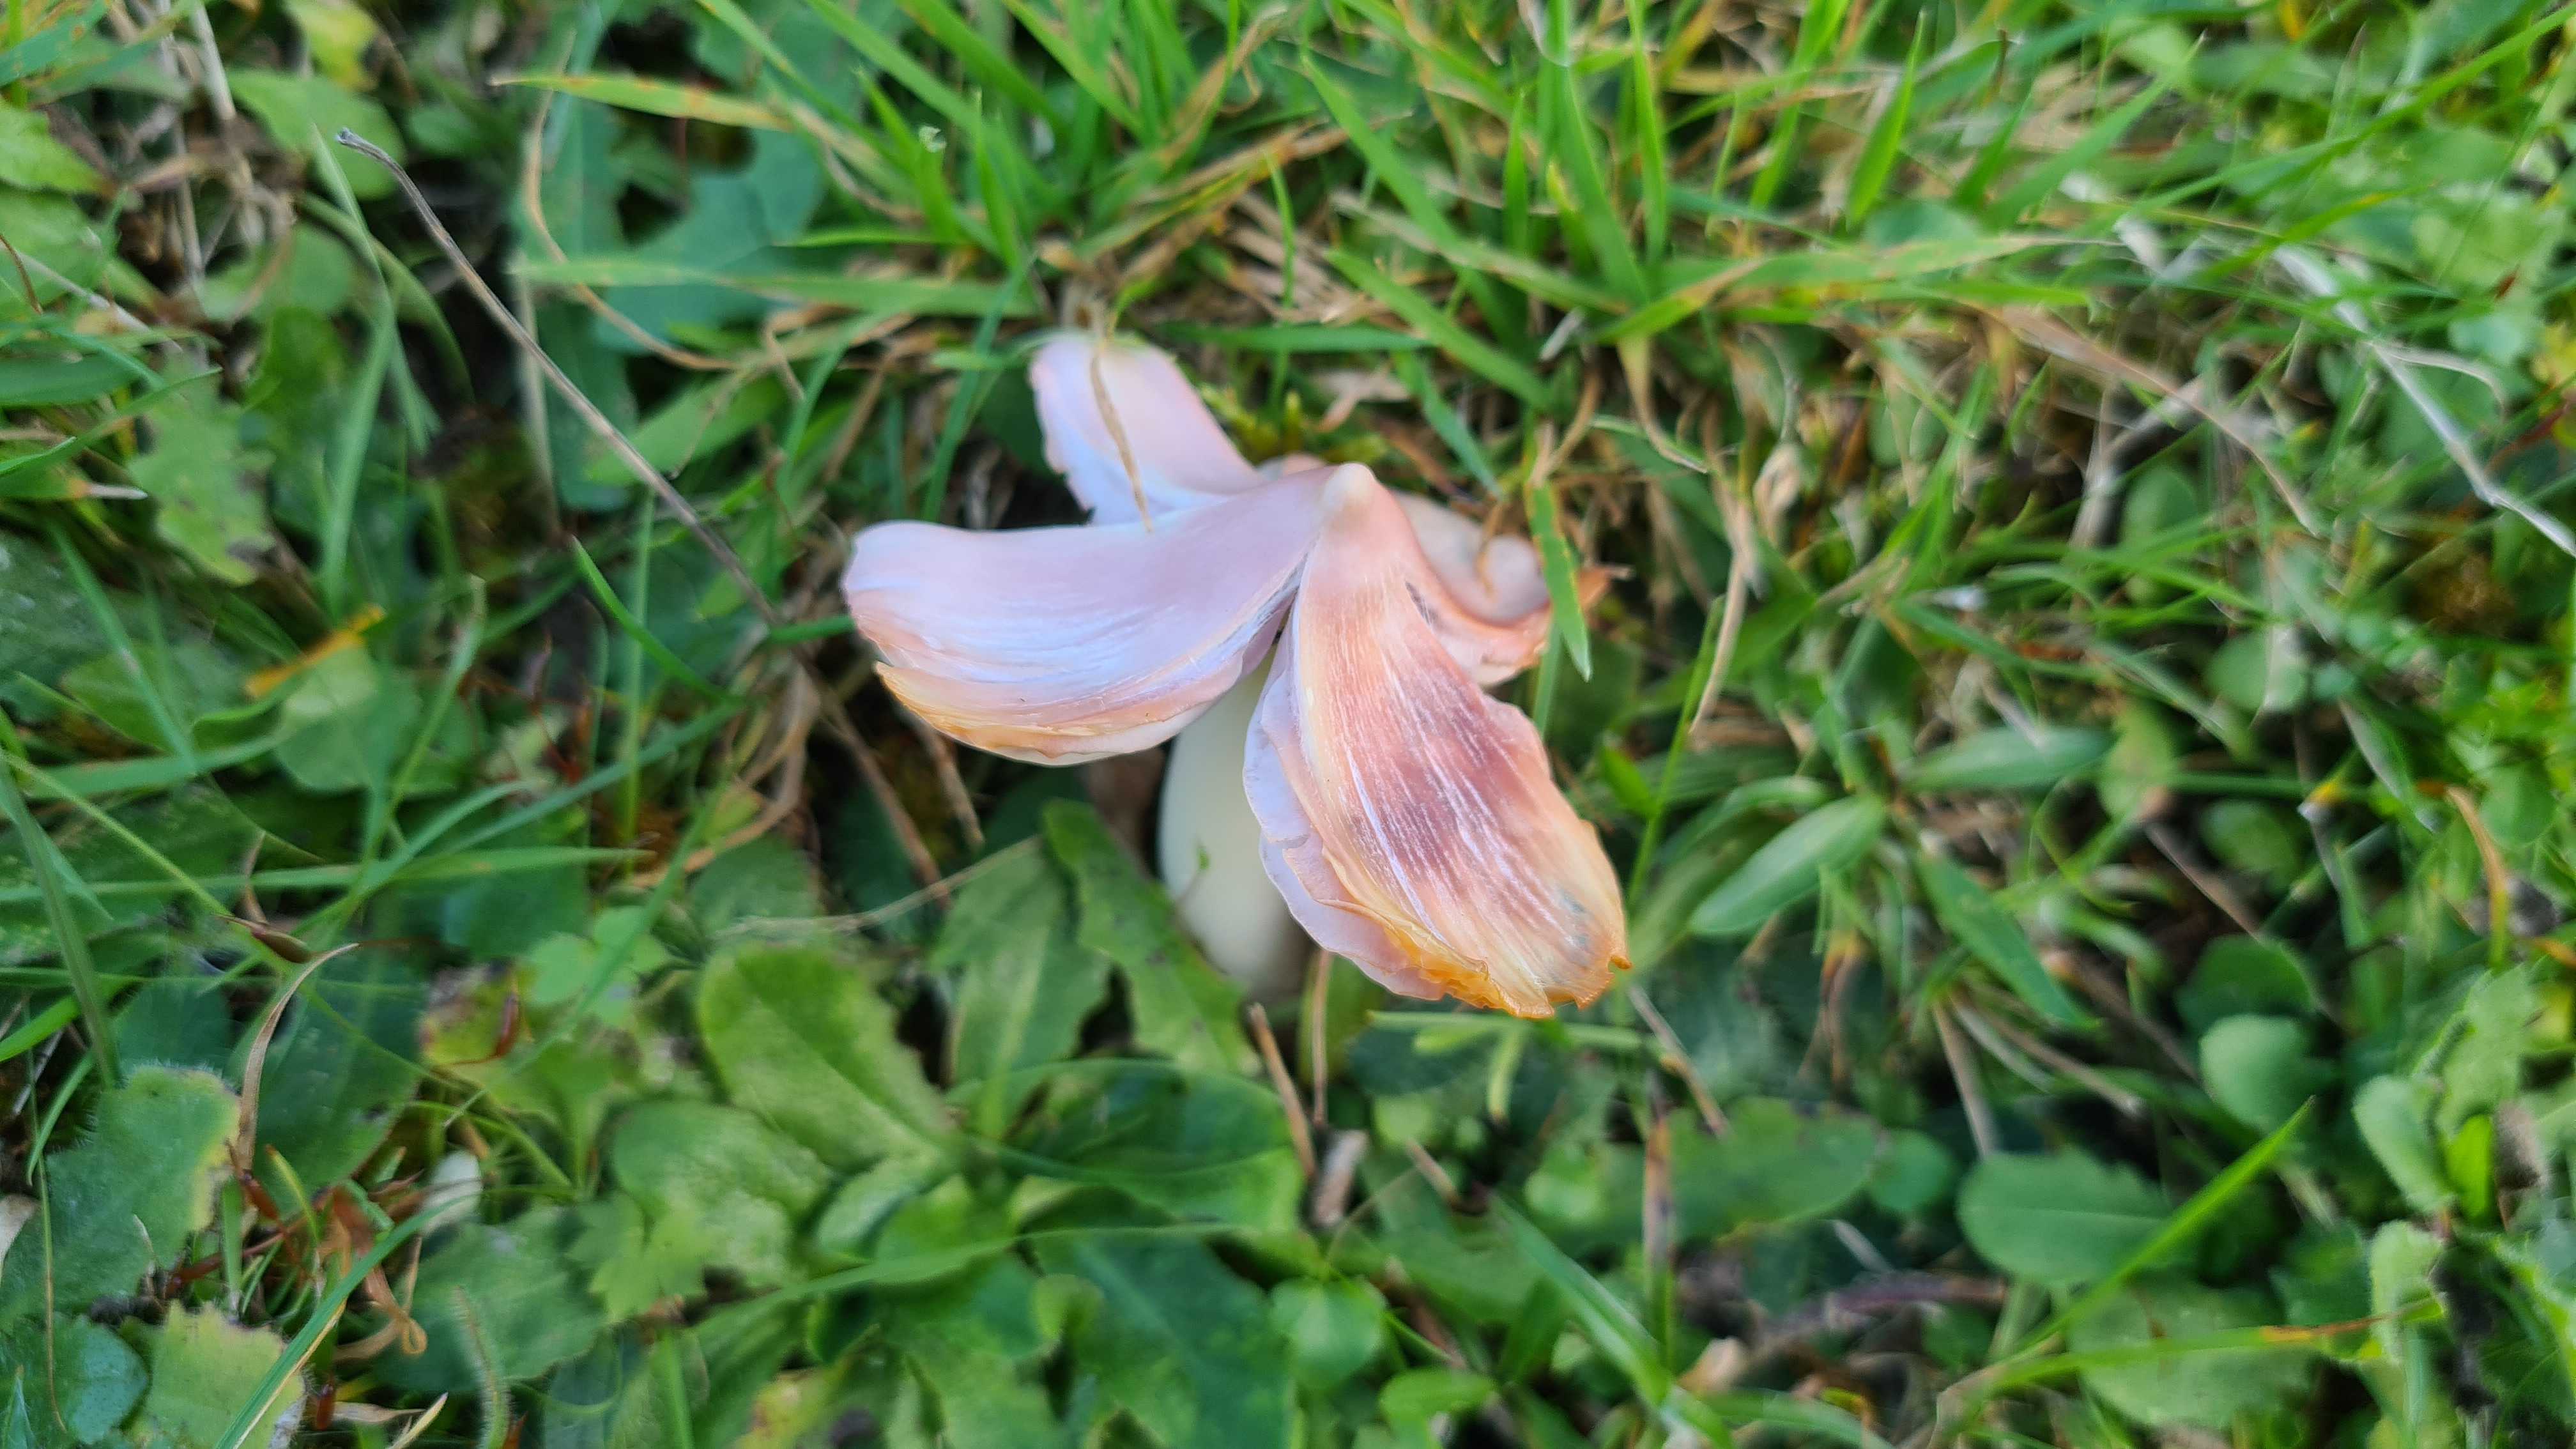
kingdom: Fungi
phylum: Basidiomycota
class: Agaricomycetes
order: Agaricales
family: Hygrophoraceae
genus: Porpolomopsis
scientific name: Porpolomopsis calyptriformis
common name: rosenrød vokshat
